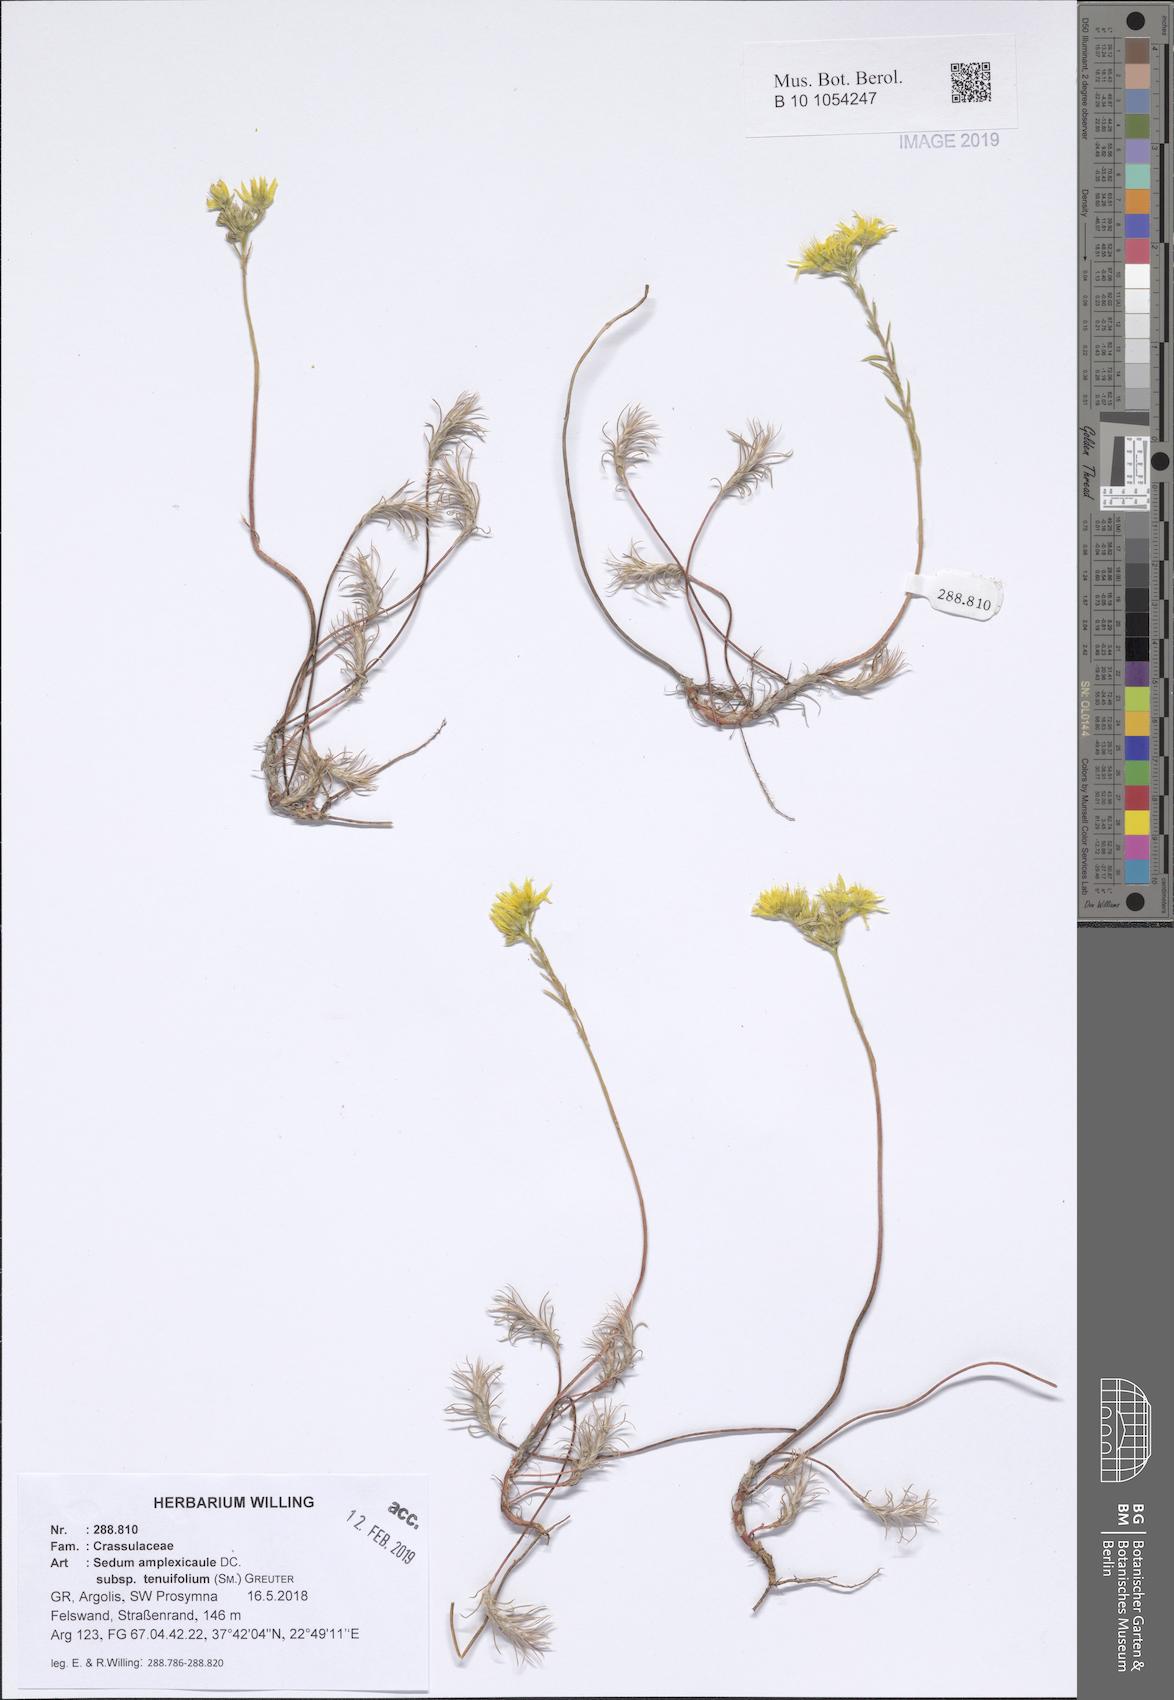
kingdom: Plantae
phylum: Tracheophyta
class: Magnoliopsida
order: Saxifragales
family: Crassulaceae
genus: Petrosedum
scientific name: Petrosedum tenuifolium
